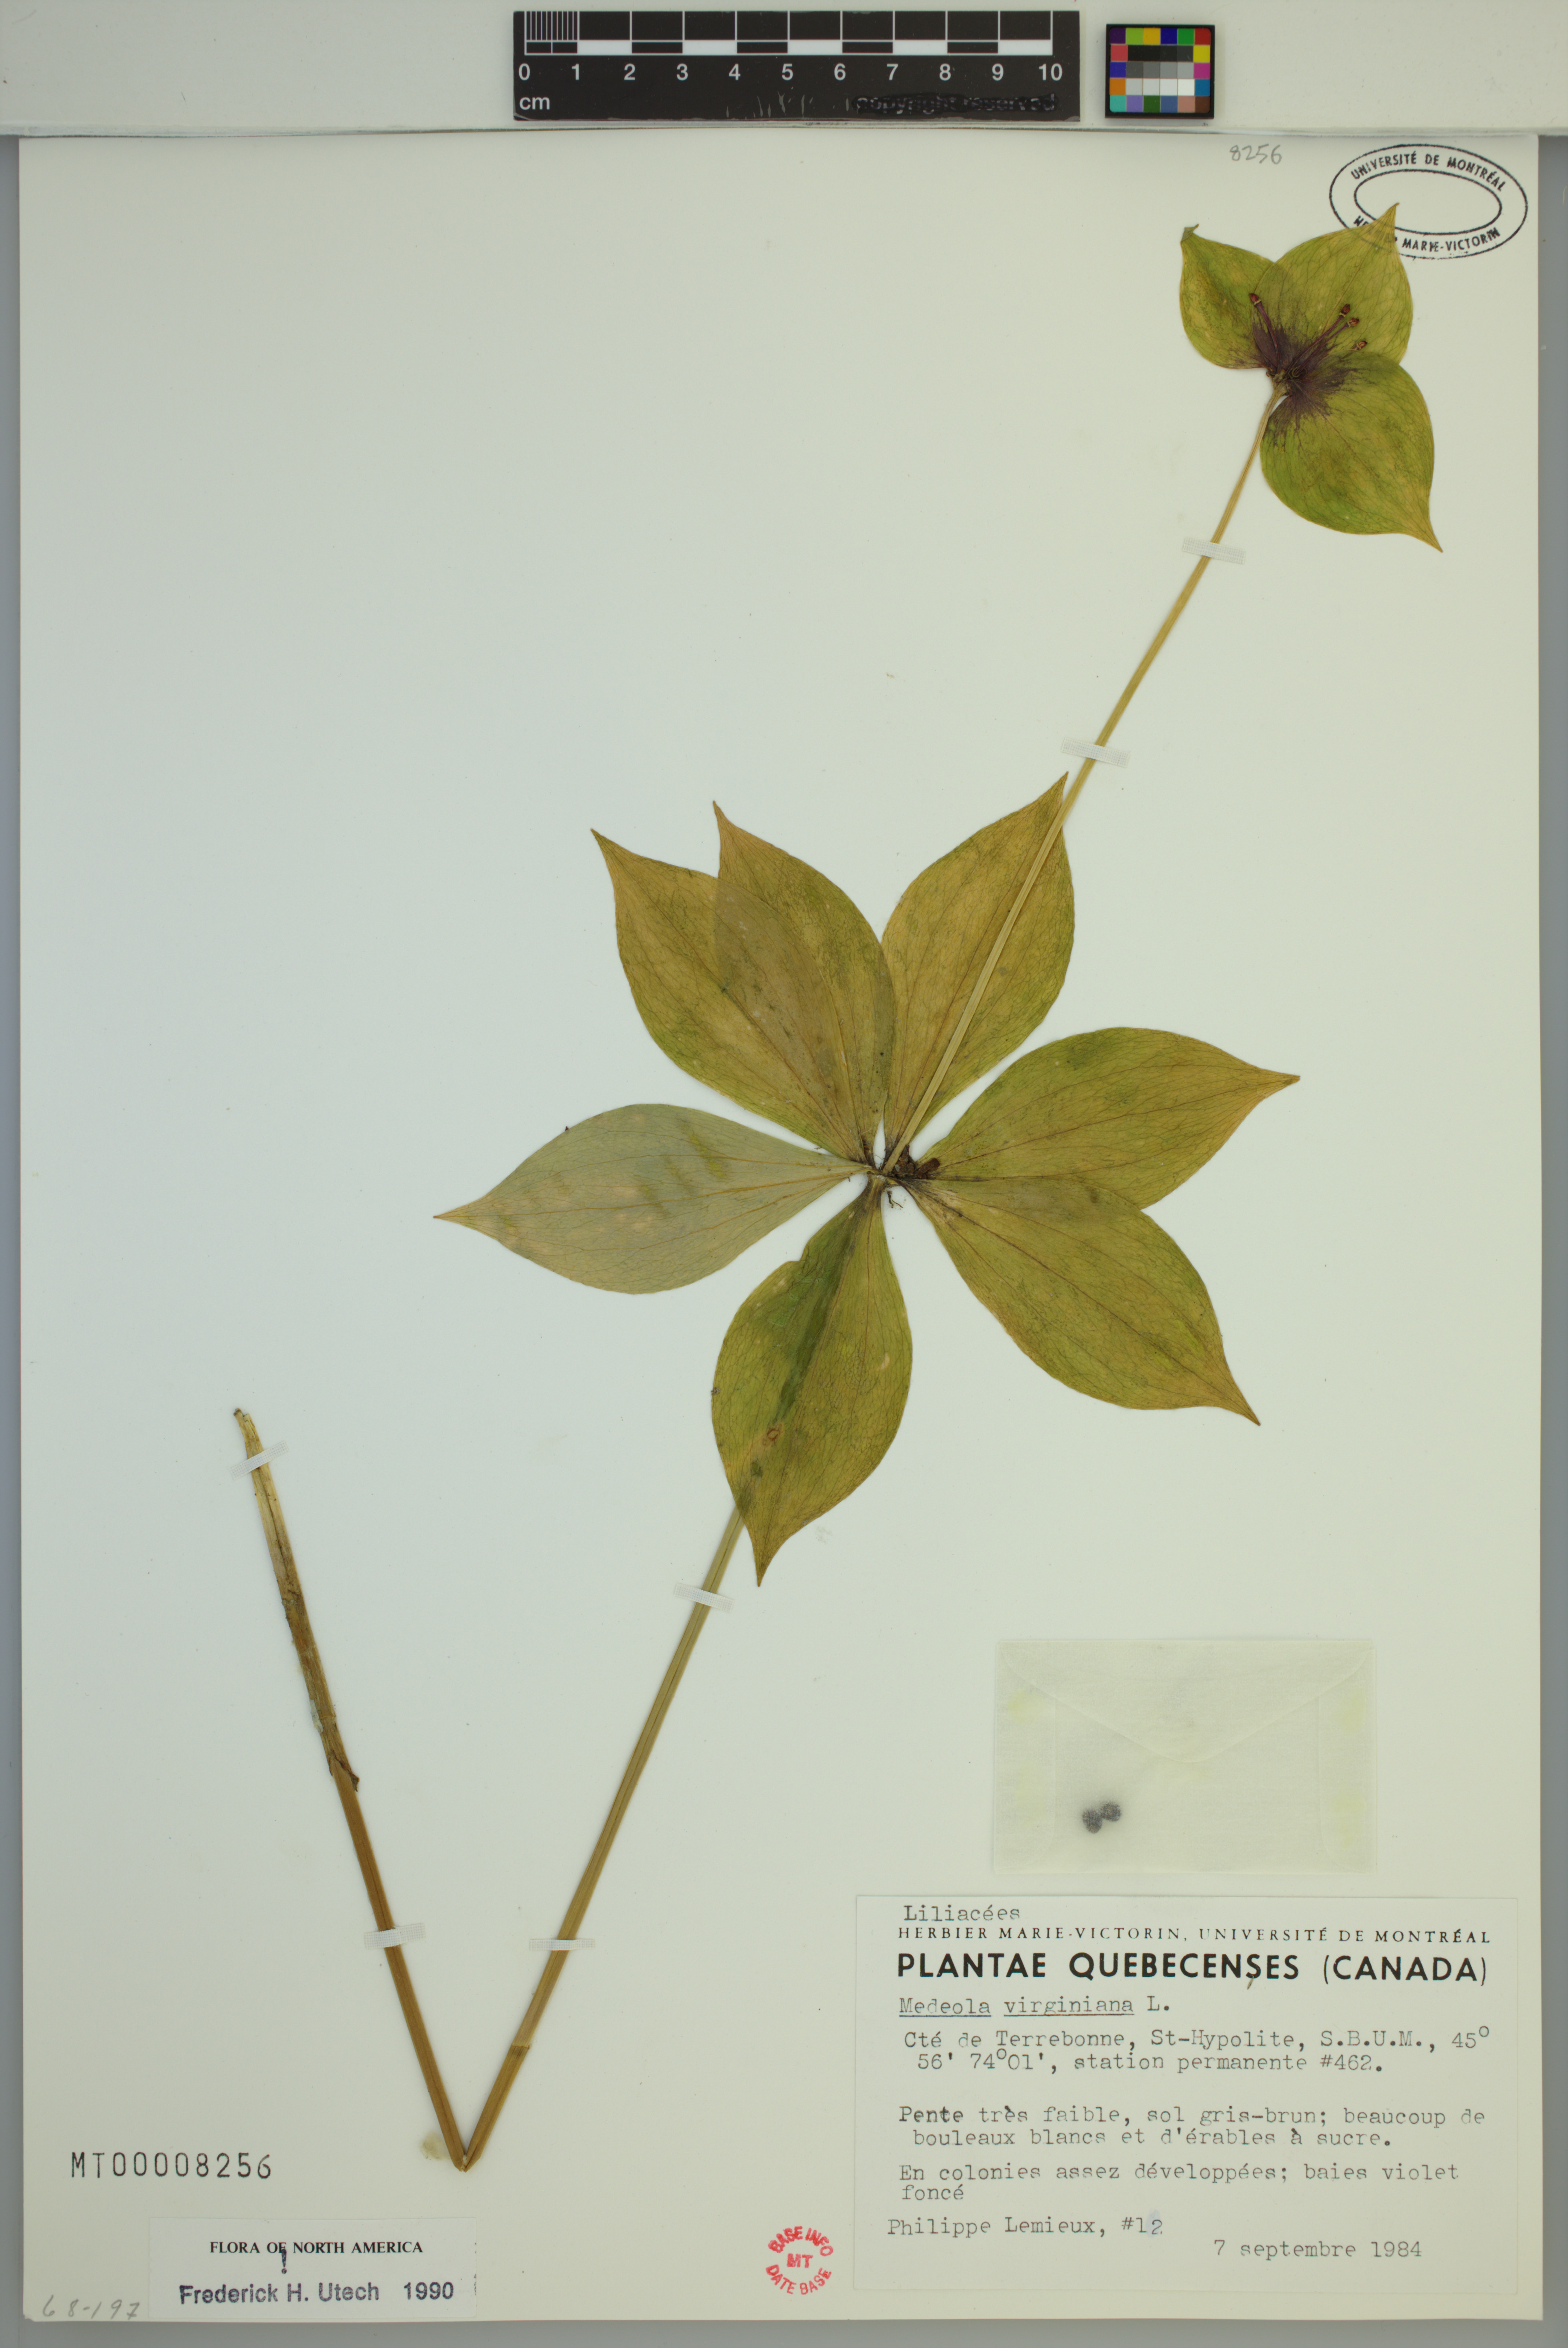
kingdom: Plantae
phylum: Tracheophyta
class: Liliopsida
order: Liliales
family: Liliaceae
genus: Medeola
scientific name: Medeola virginiana
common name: Indian cucumber-root
